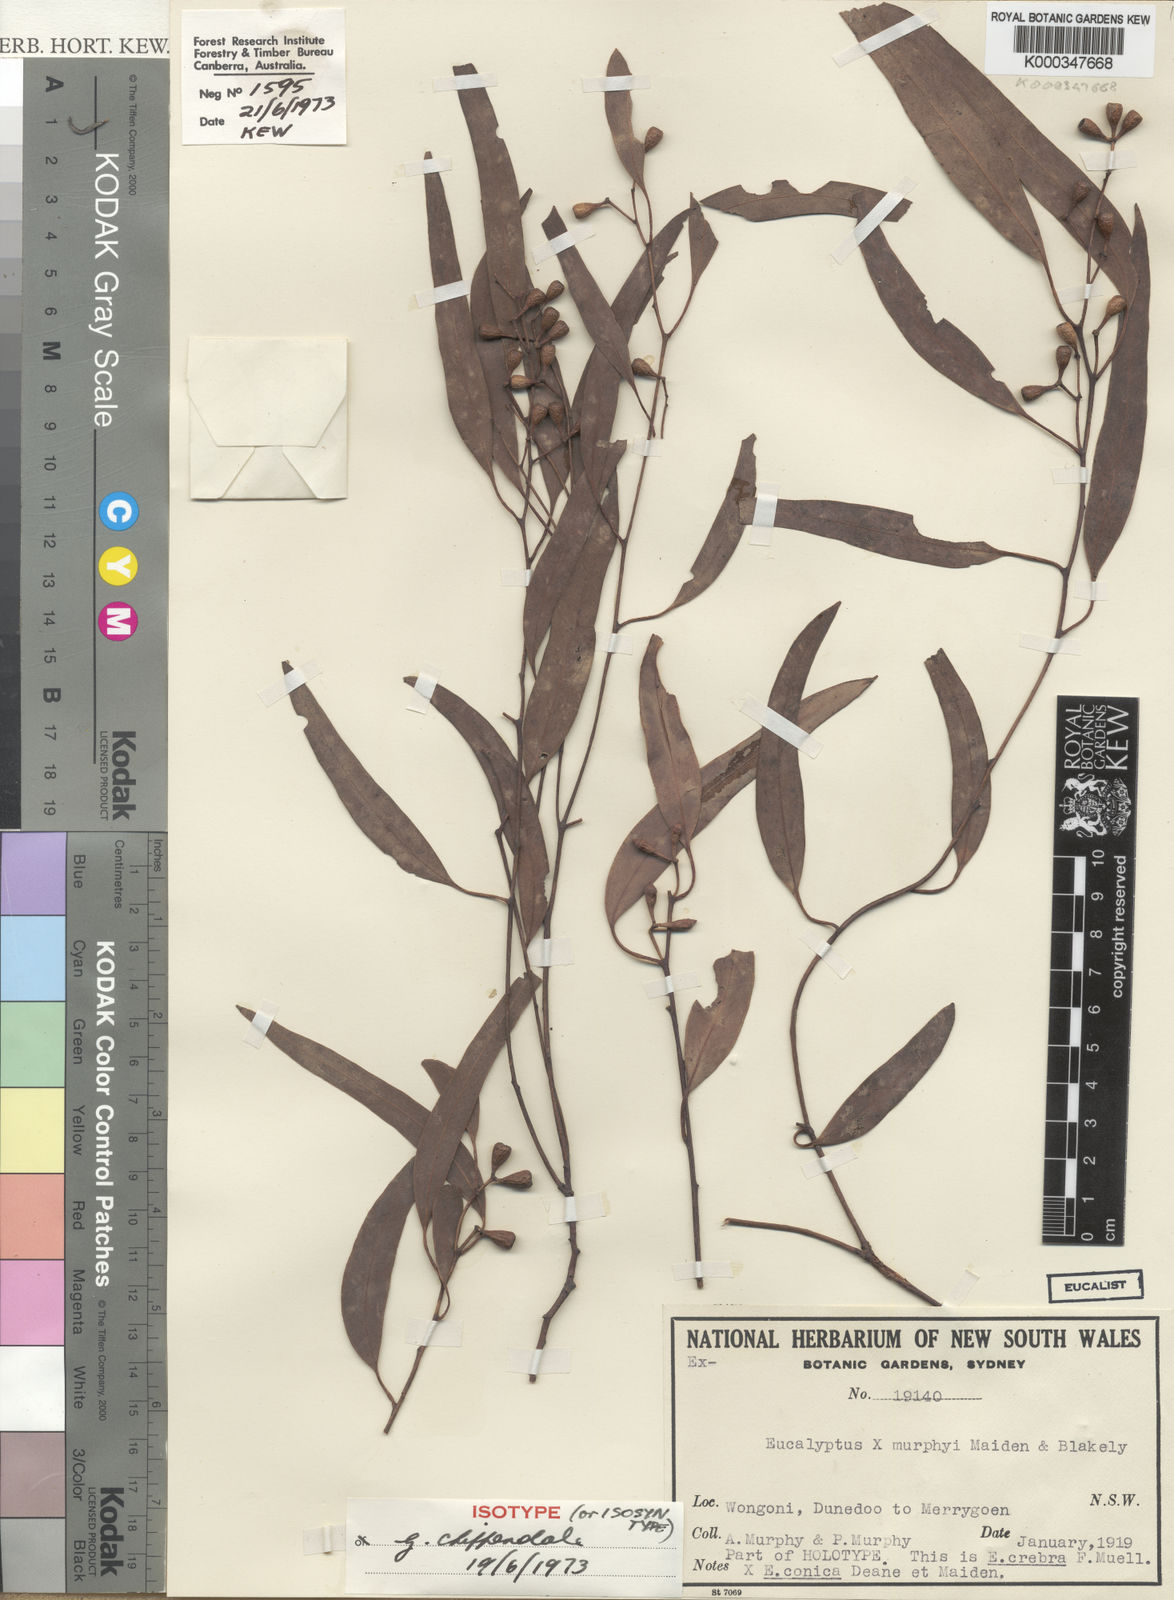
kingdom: Plantae
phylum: Tracheophyta
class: Magnoliopsida
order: Myrtales
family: Myrtaceae
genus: Eucalyptus
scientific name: Eucalyptus murphyi
